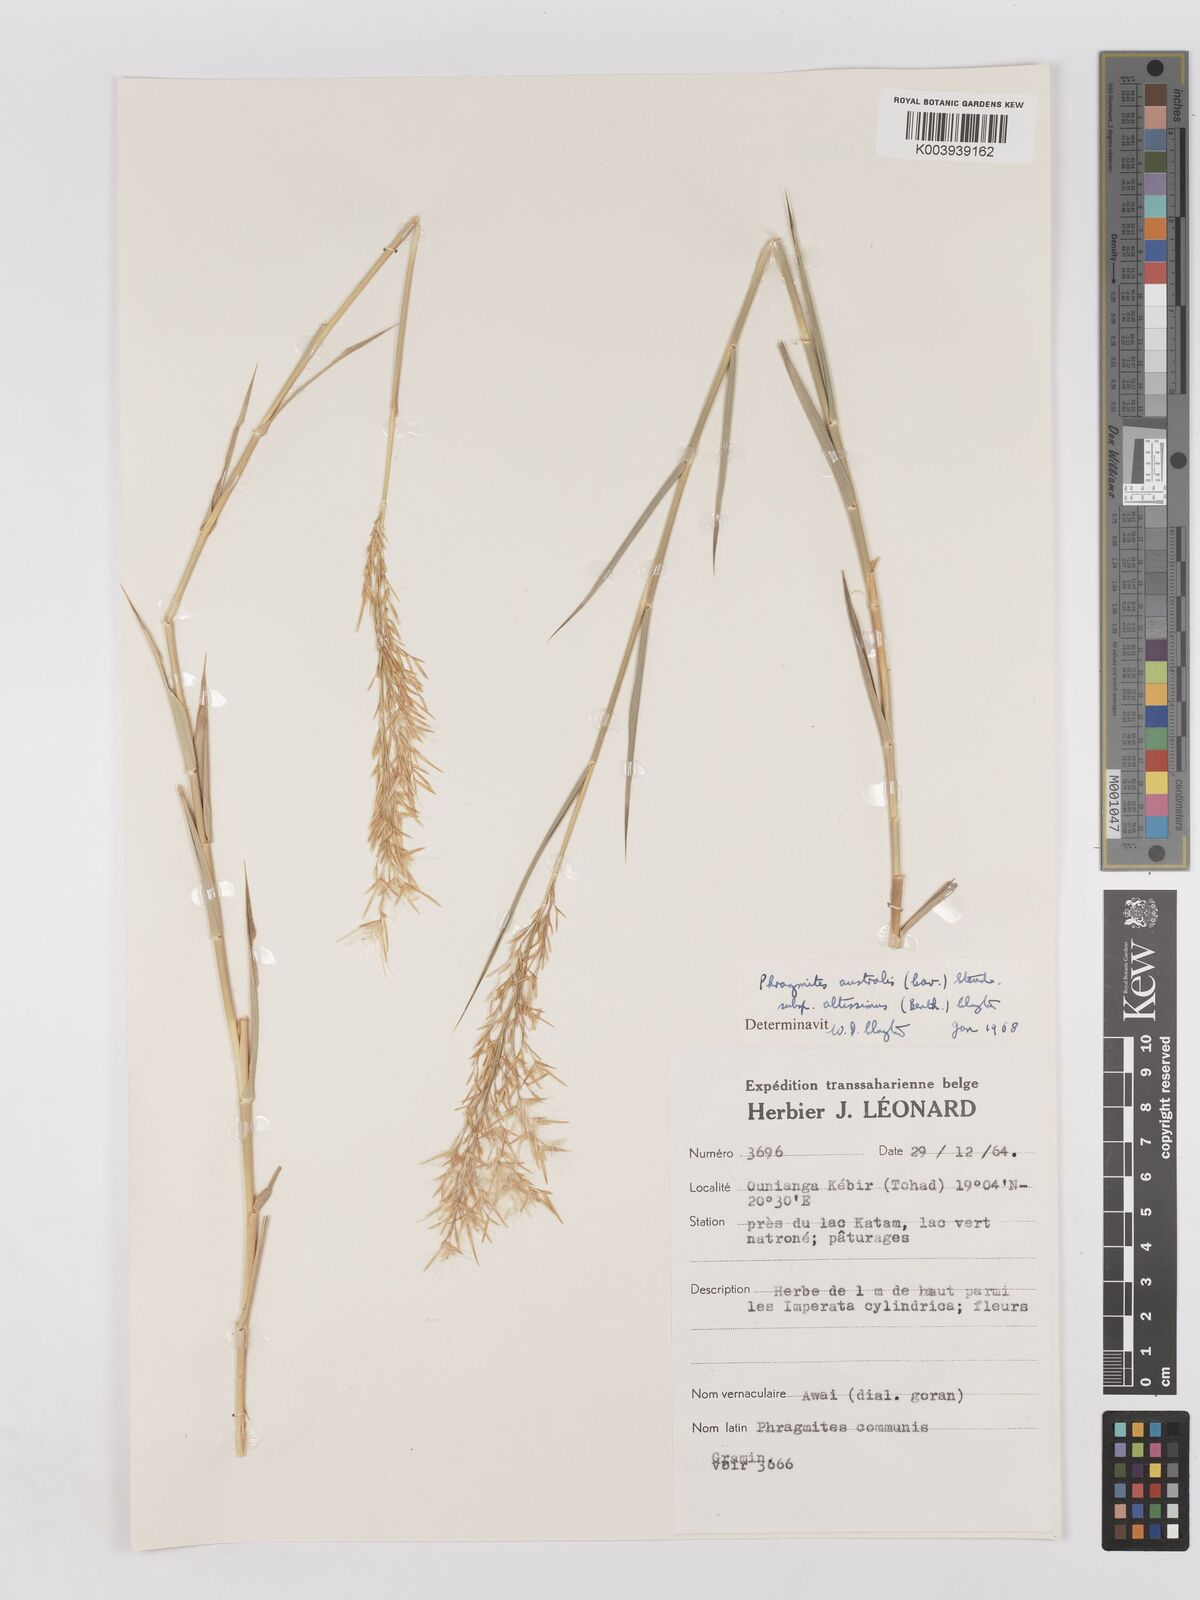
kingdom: Plantae
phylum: Tracheophyta
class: Liliopsida
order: Poales
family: Poaceae
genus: Phragmites
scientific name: Phragmites australis
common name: Common reed
